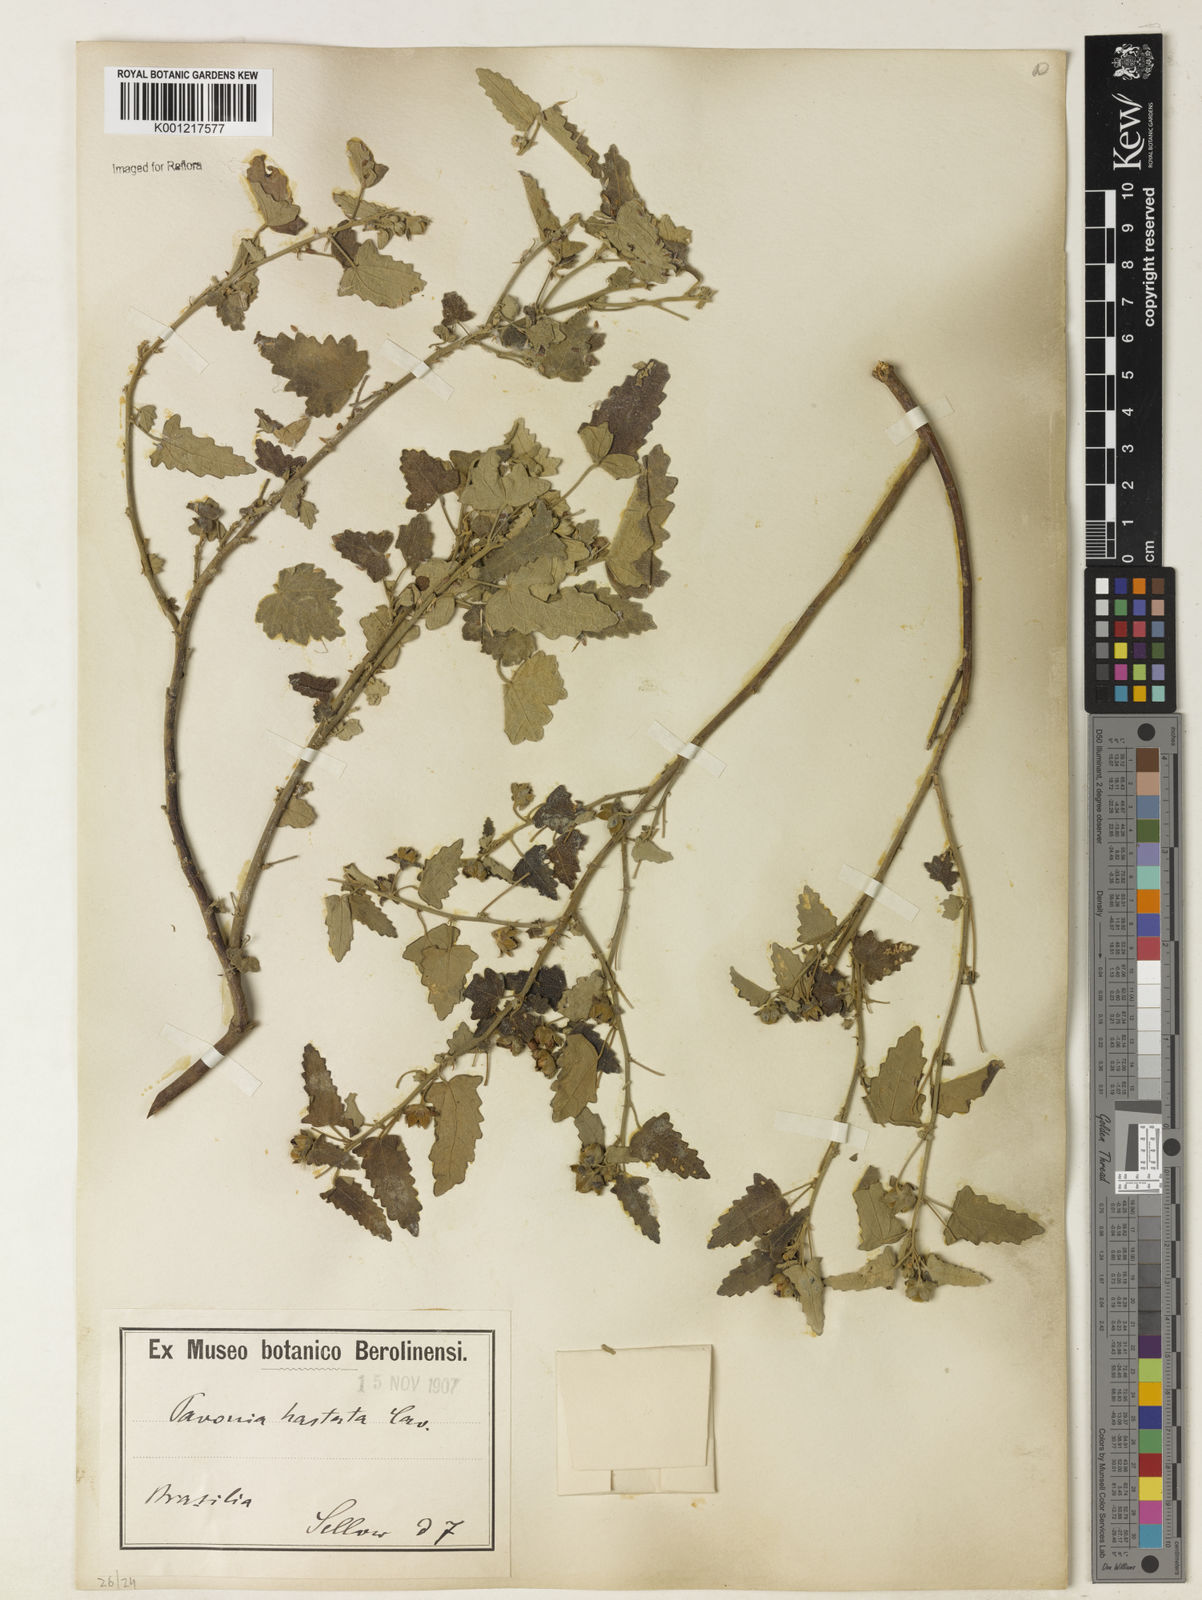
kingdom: Plantae
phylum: Tracheophyta
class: Magnoliopsida
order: Malvales
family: Malvaceae
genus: Pavonia
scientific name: Pavonia hastata
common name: Spearleaf swampmallow
